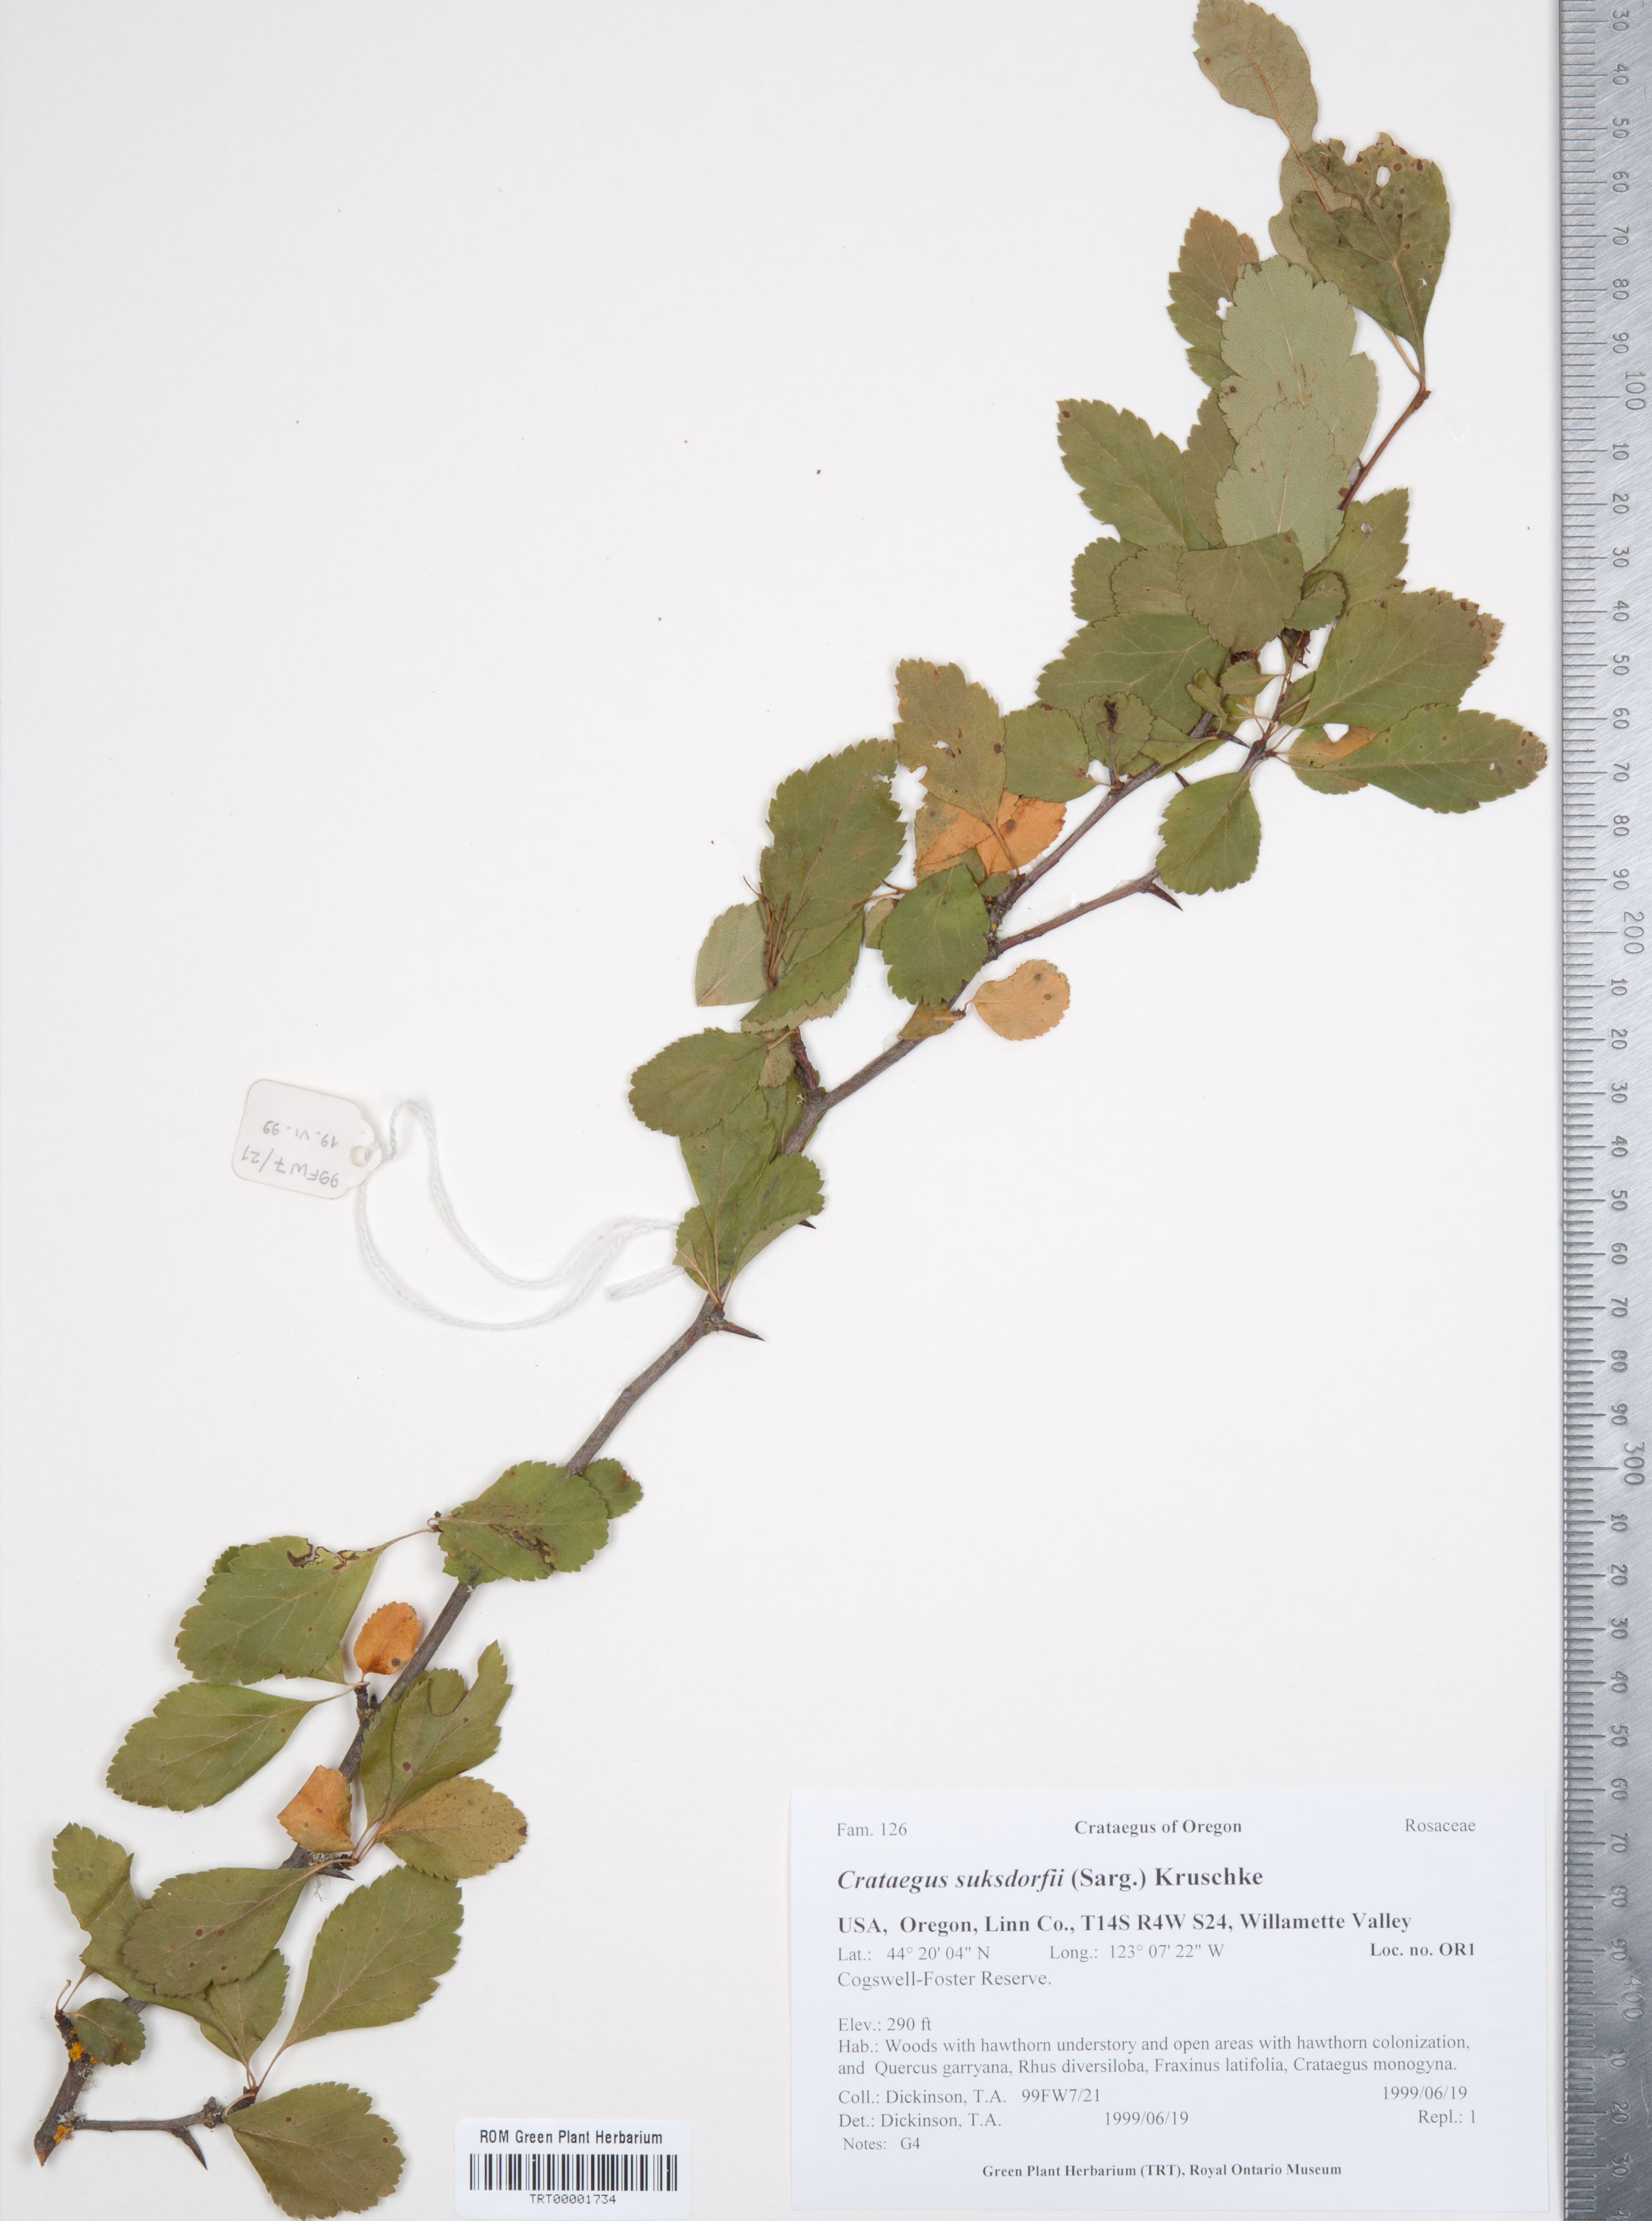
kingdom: Plantae
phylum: Tracheophyta
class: Magnoliopsida
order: Rosales
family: Rosaceae
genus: Crataegus
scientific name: Crataegus gaylussacia
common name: Huckleberry hawthorn
